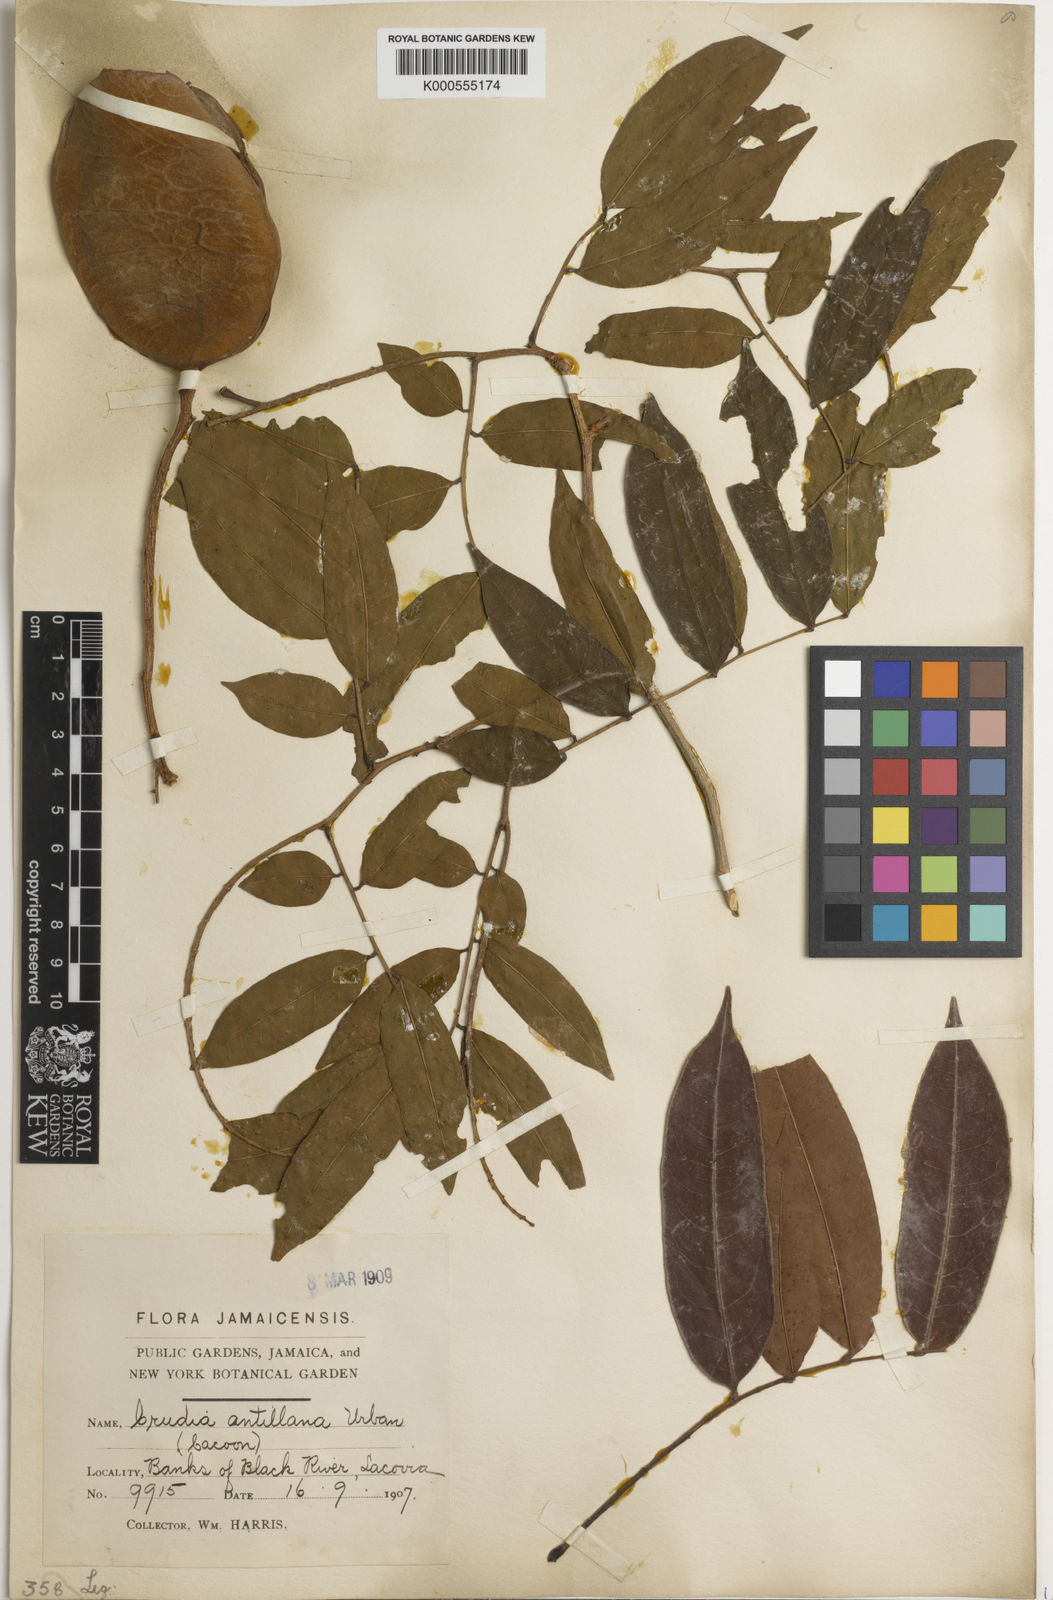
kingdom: Plantae
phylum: Tracheophyta
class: Magnoliopsida
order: Fabales
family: Fabaceae
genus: Crudia
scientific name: Crudia spicata
